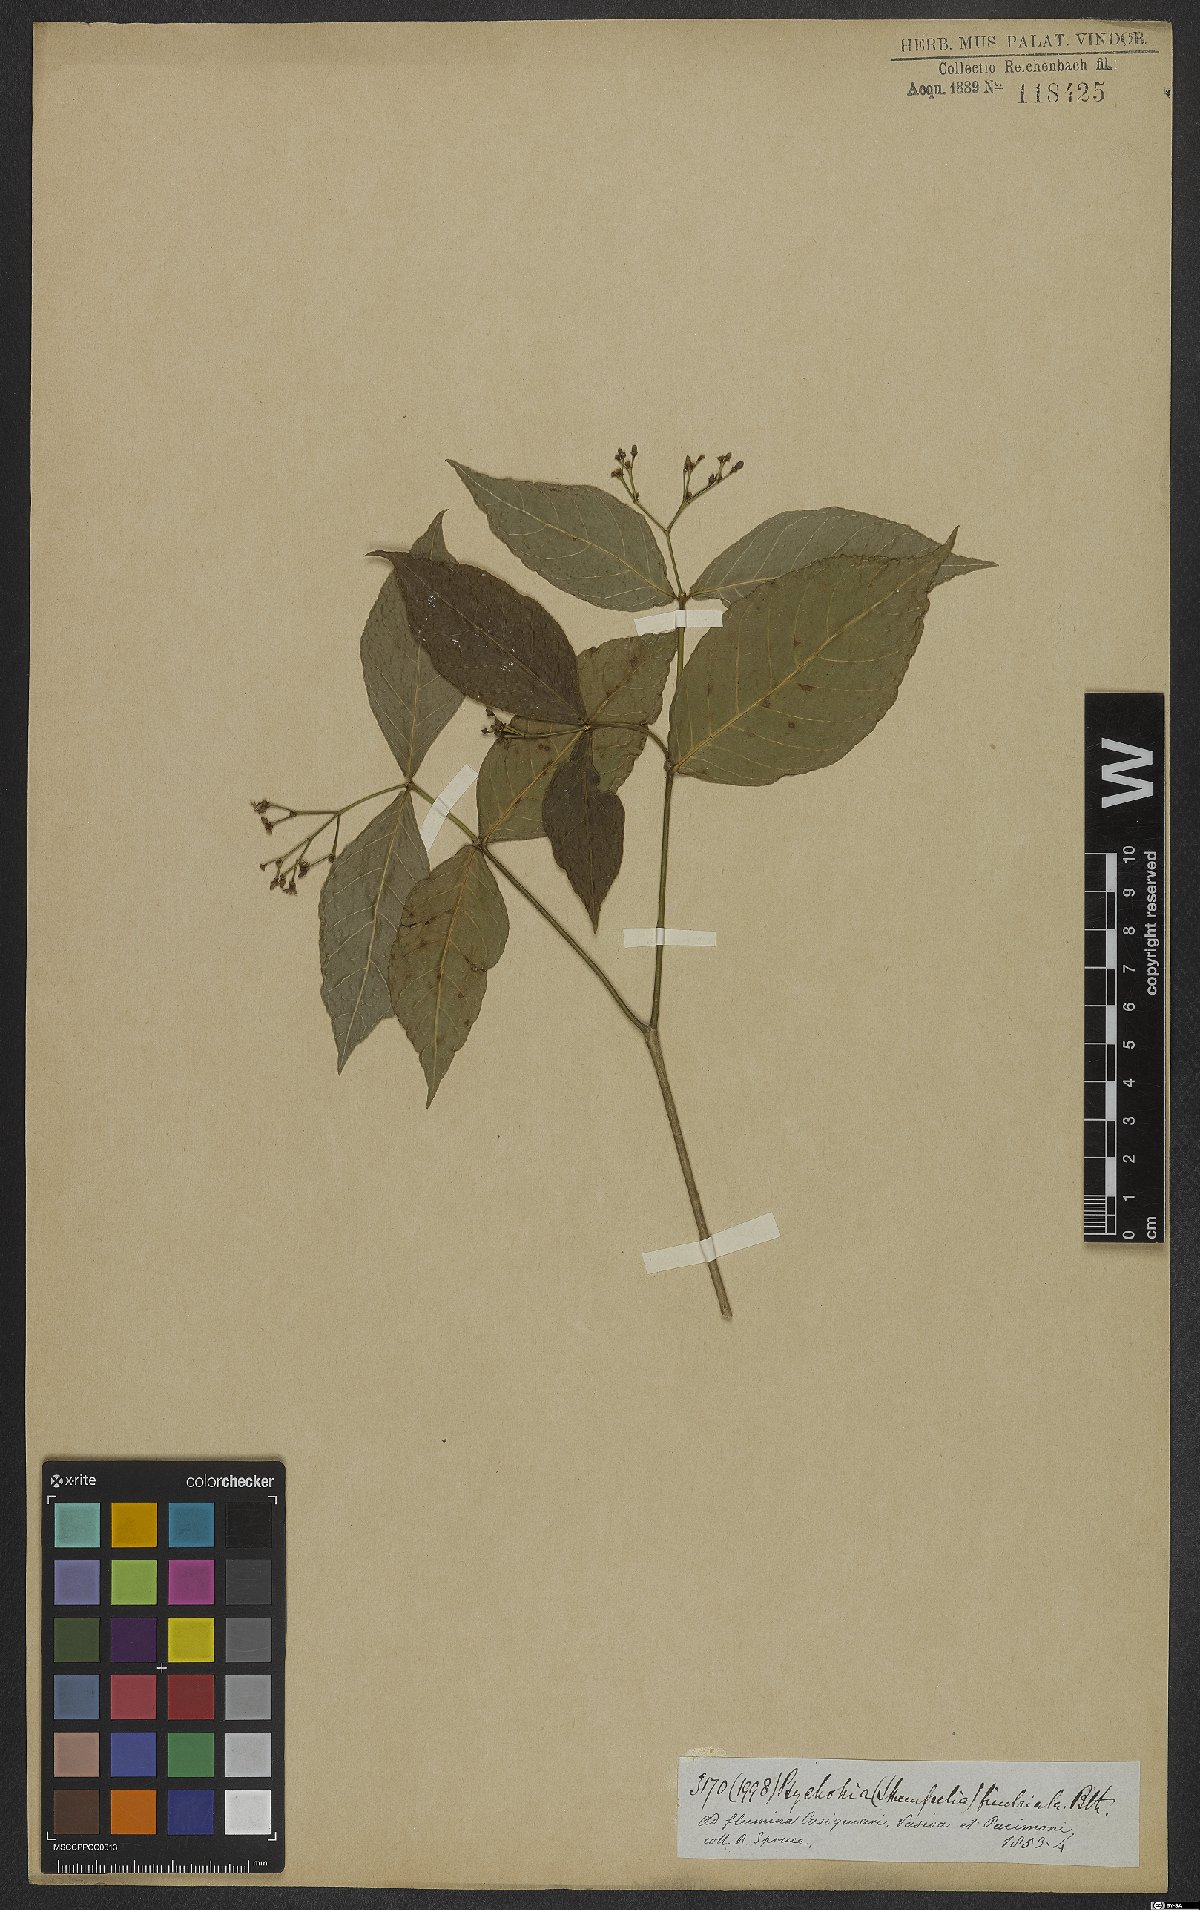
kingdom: Plantae
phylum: Tracheophyta
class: Magnoliopsida
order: Gentianales
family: Rubiaceae
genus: Rudgea
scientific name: Rudgea cornifolia
